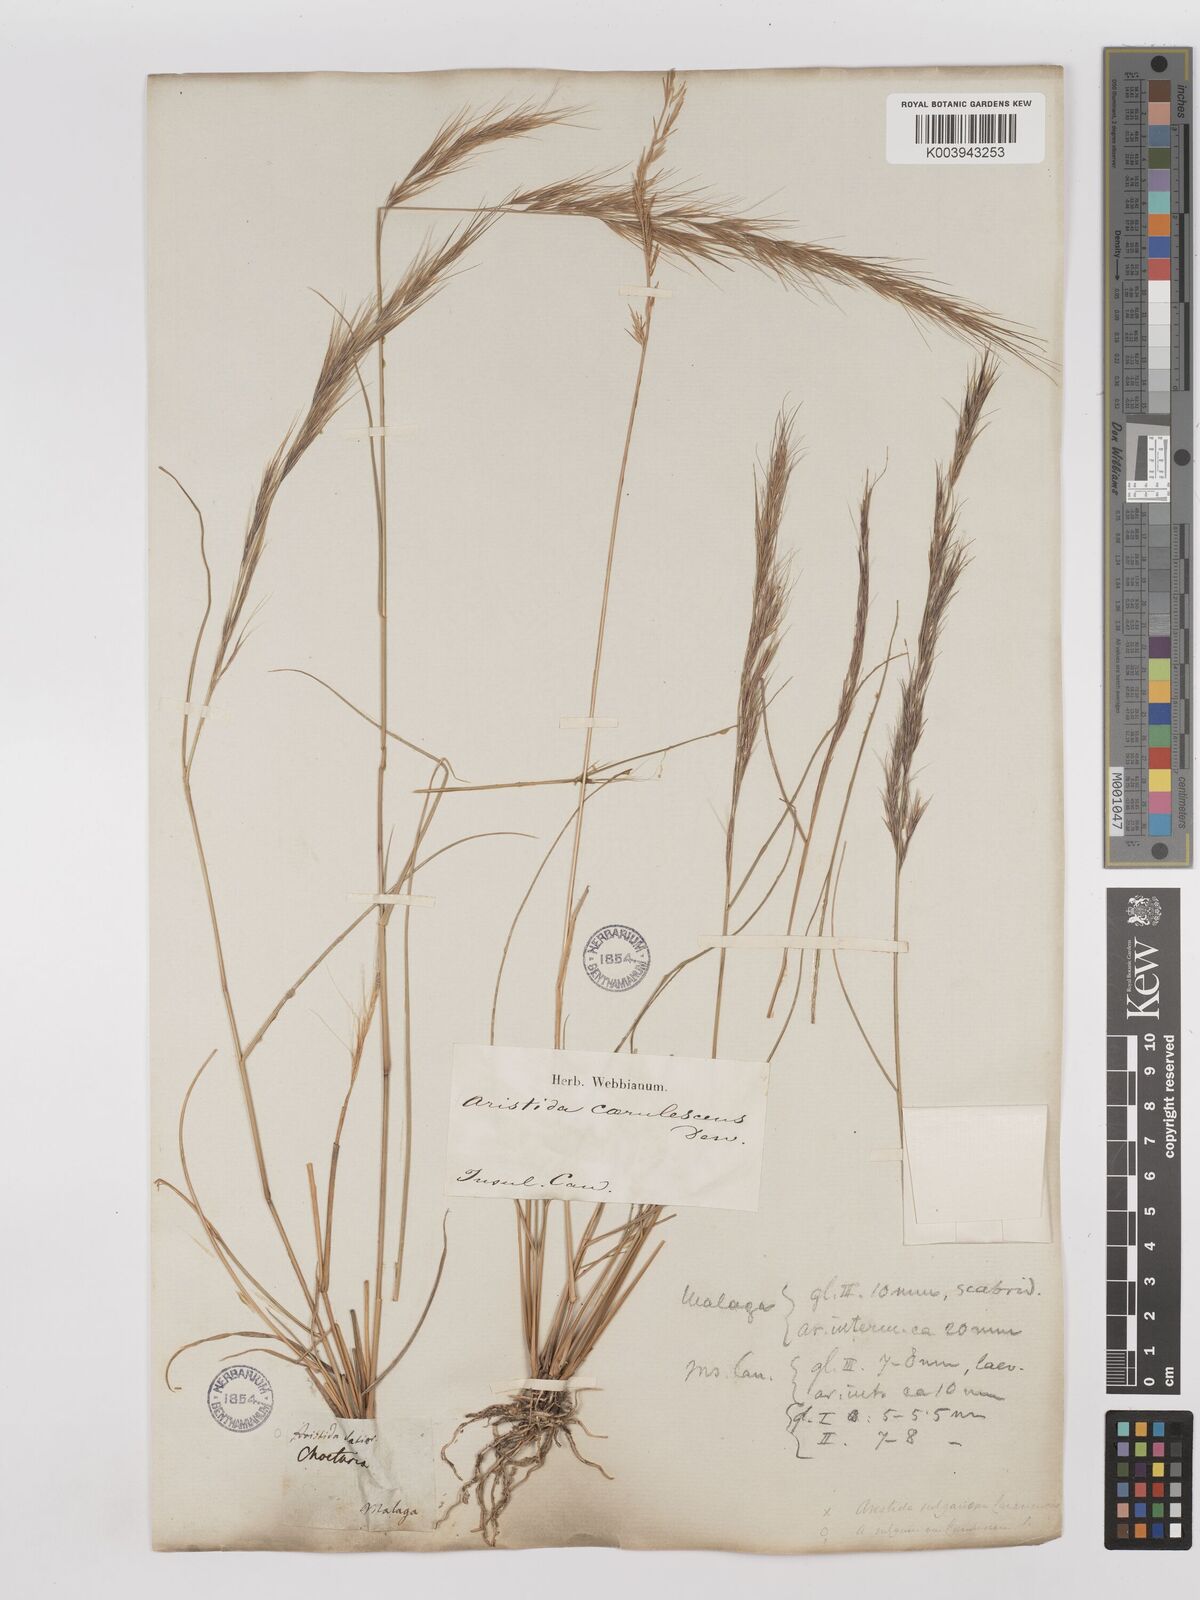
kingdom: Plantae
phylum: Tracheophyta
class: Liliopsida
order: Poales
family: Poaceae
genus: Aristida
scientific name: Aristida adscensionis
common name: Sixweeks threeawn
